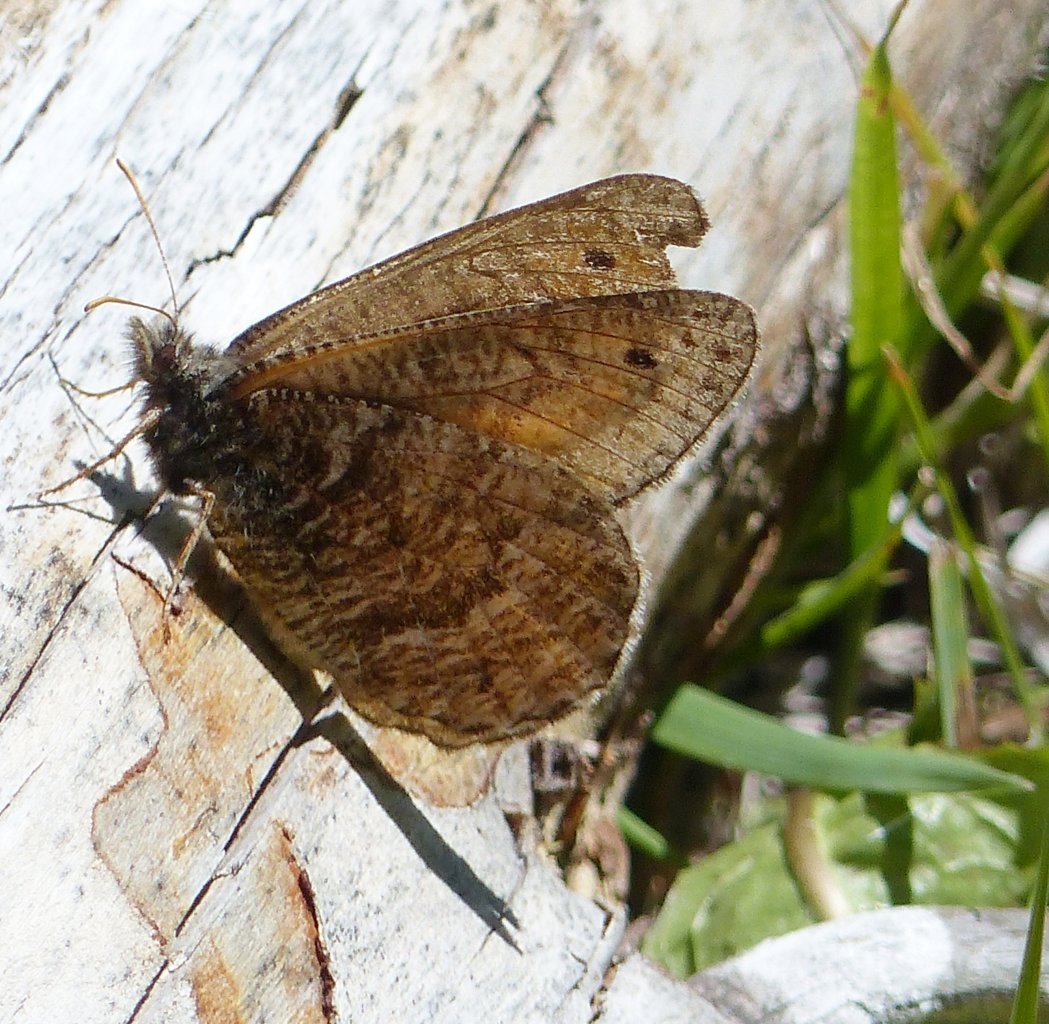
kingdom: Animalia
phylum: Arthropoda
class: Insecta
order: Lepidoptera
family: Nymphalidae
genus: Oeneis
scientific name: Oeneis chryxus
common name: Chryxus Arctic
